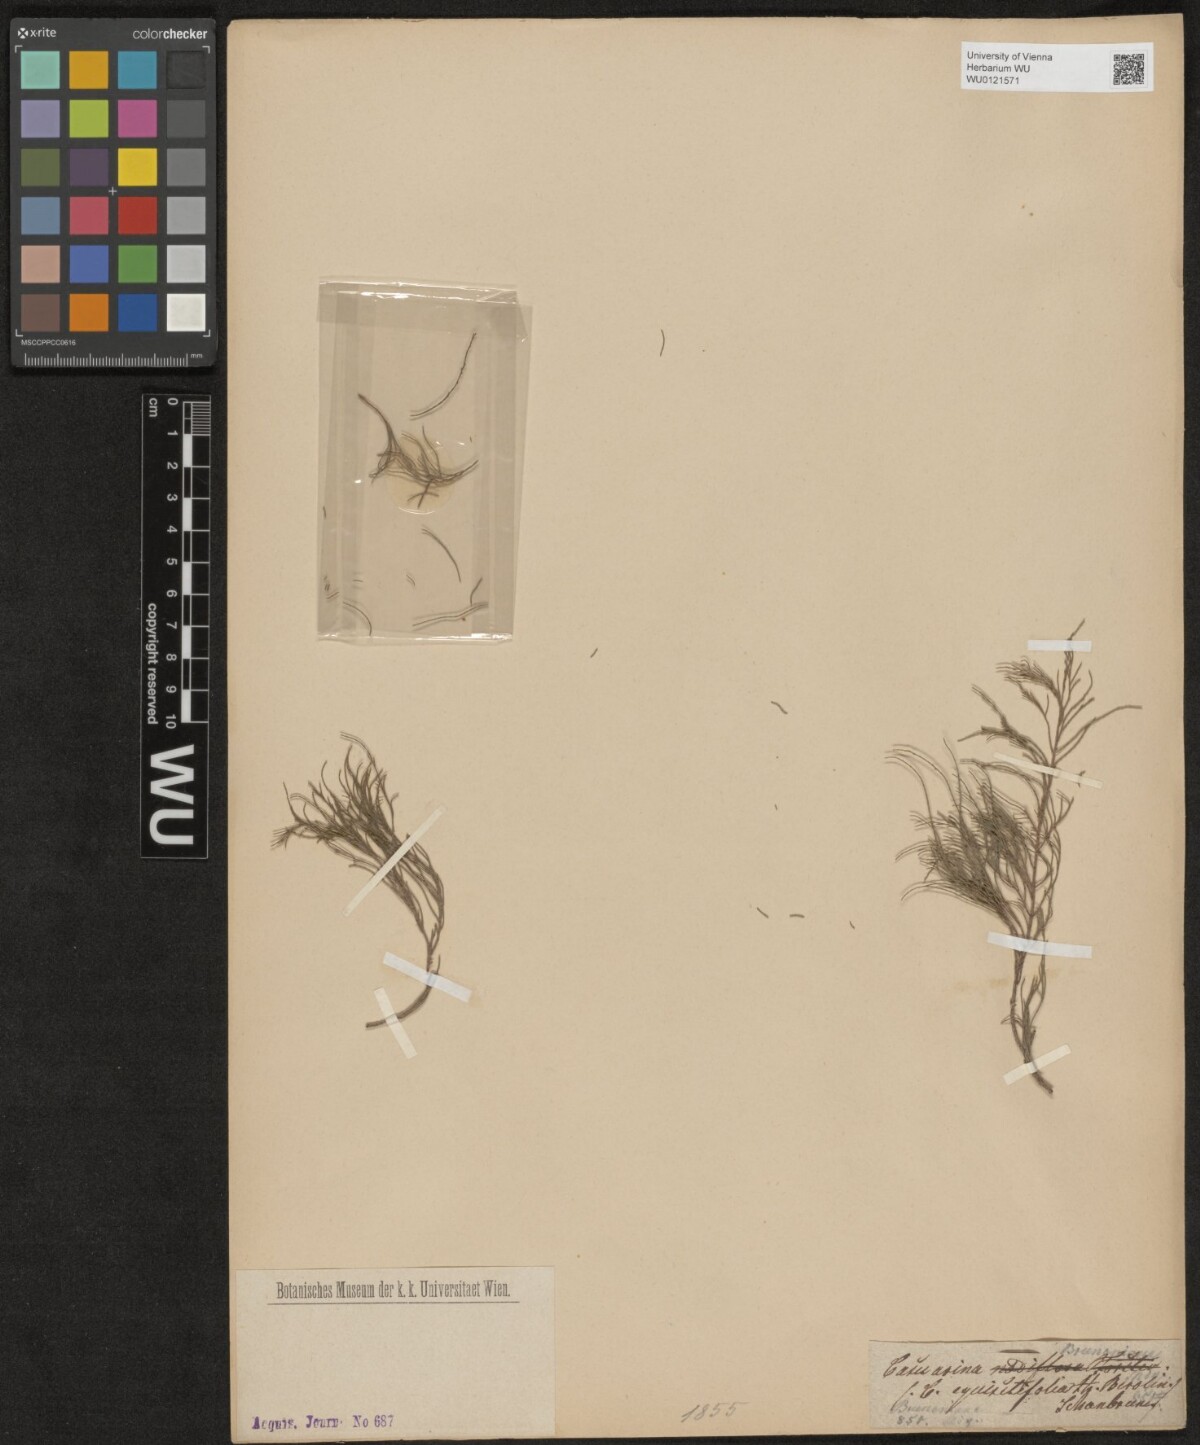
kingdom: Plantae
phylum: Tracheophyta
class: Magnoliopsida
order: Fagales
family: Casuarinaceae
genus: Casuarina
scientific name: Casuarina equisetifolia
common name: Beach sheoak
